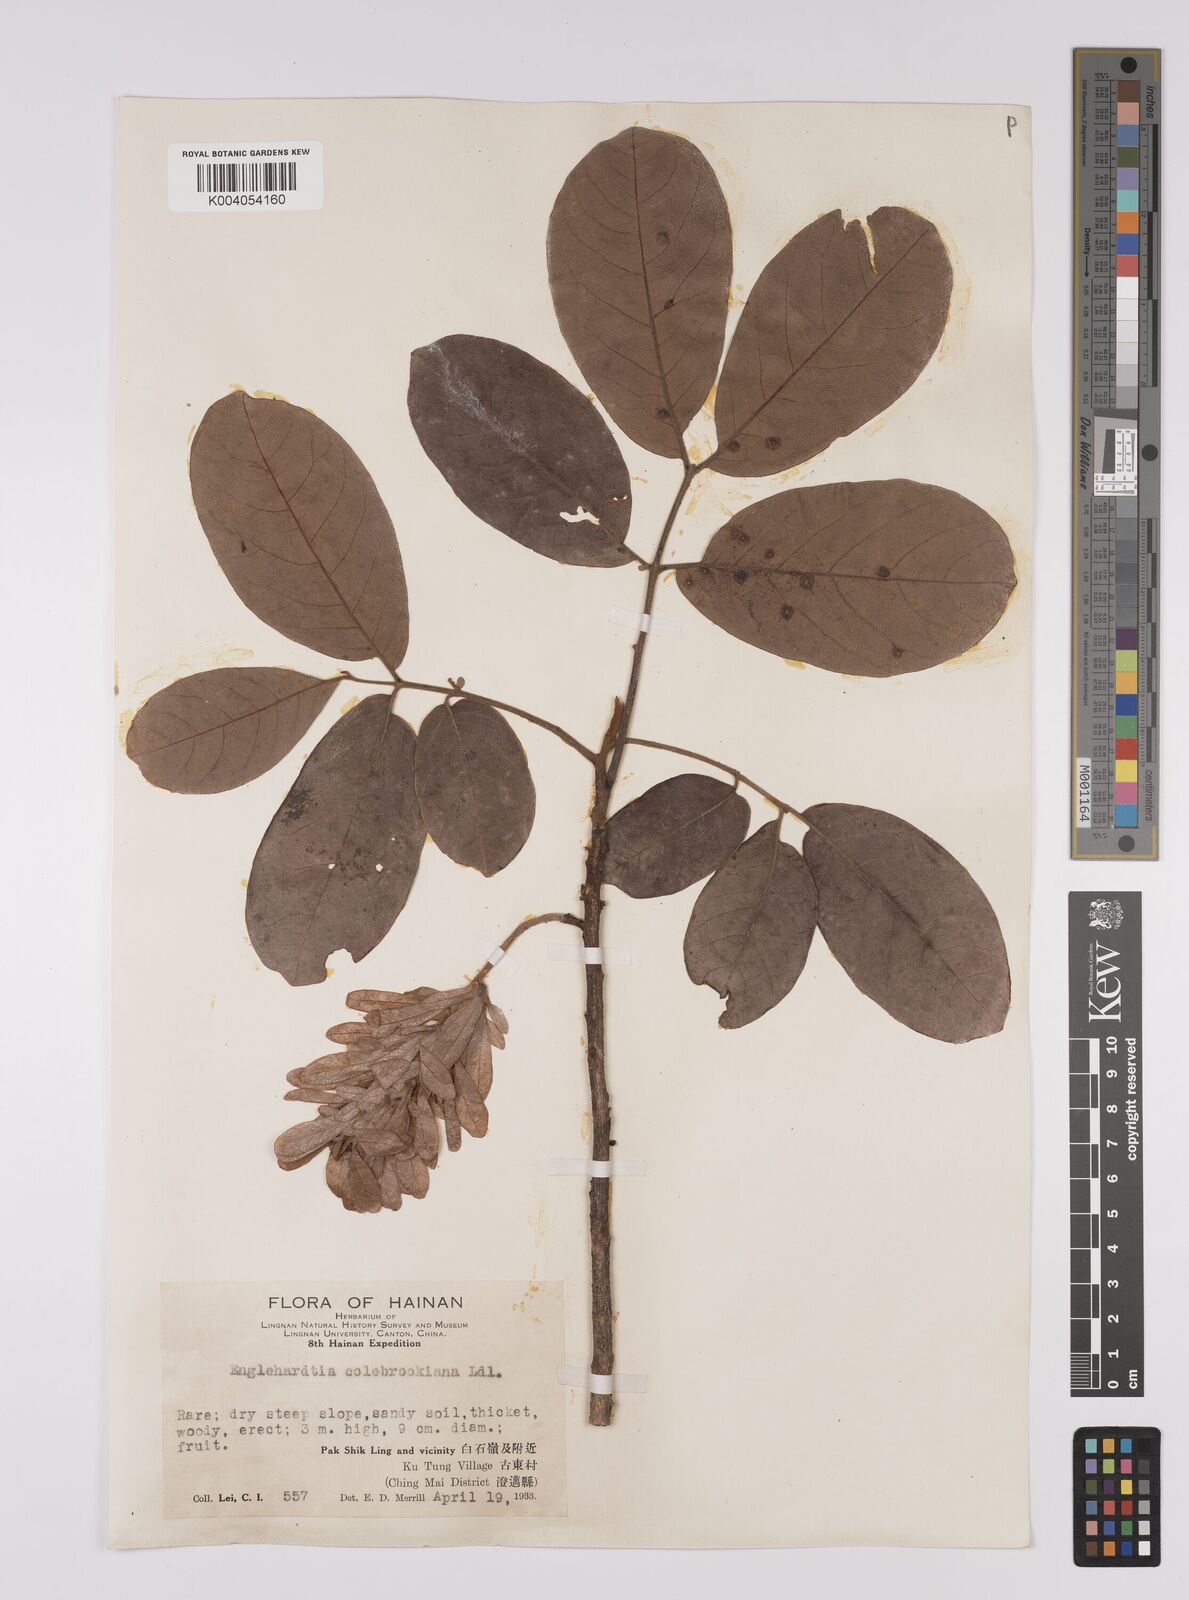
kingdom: Plantae
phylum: Tracheophyta
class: Magnoliopsida
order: Fagales
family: Juglandaceae
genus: Engelhardia
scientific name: Engelhardia spicata
